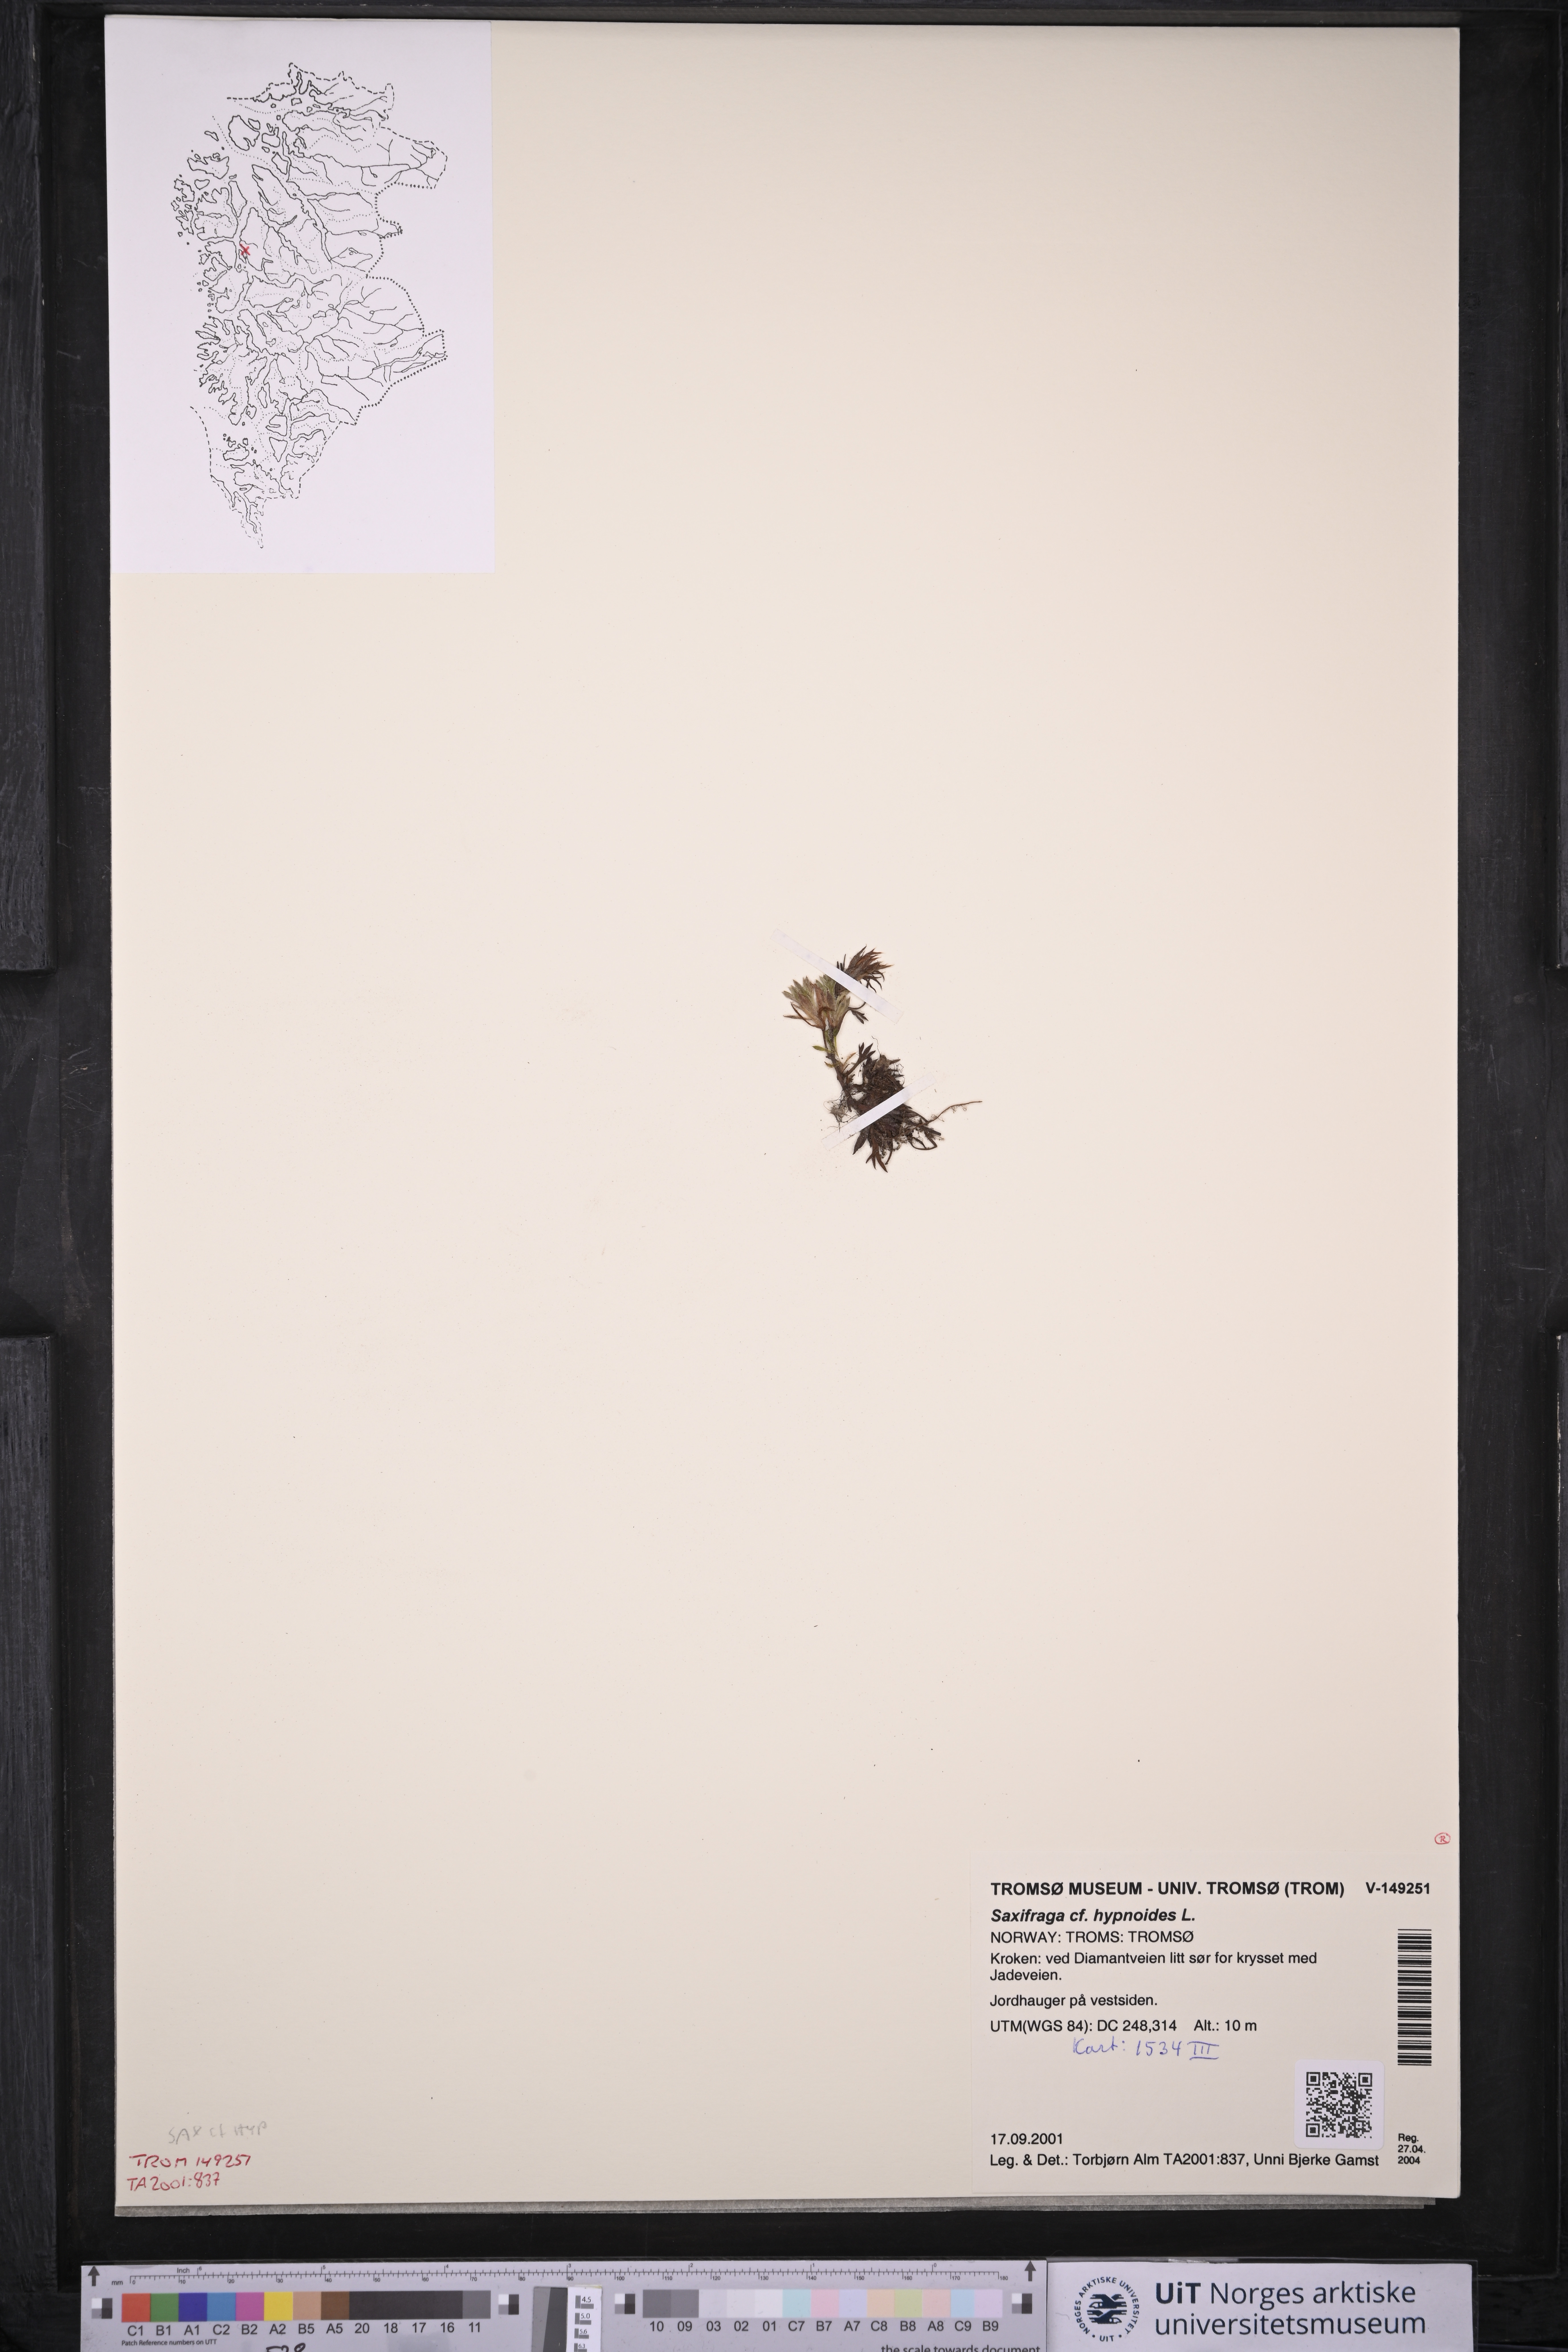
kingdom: Plantae
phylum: Tracheophyta
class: Magnoliopsida
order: Saxifragales
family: Saxifragaceae
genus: Saxifraga
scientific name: Saxifraga hypnoides
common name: Mossy saxifrage
